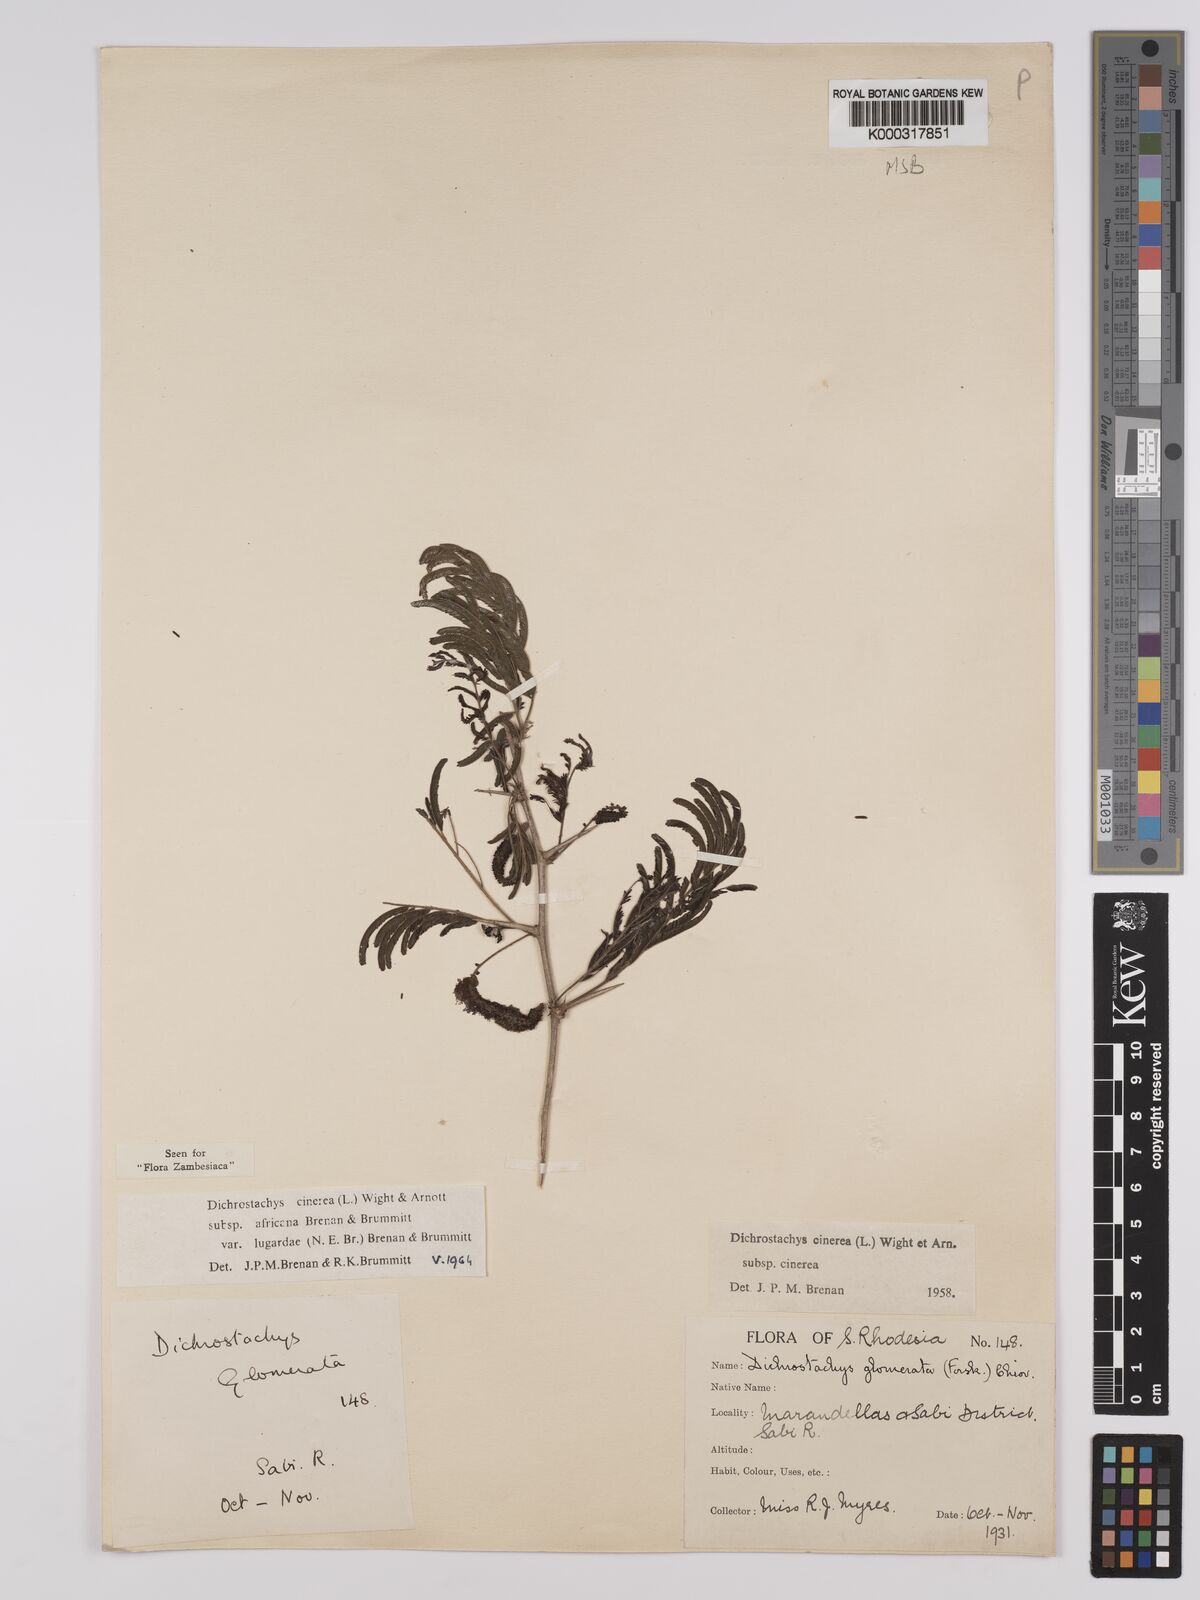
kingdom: Plantae
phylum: Tracheophyta
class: Magnoliopsida
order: Fabales
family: Fabaceae
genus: Dichrostachys
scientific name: Dichrostachys cinerea
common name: Sicklebush
